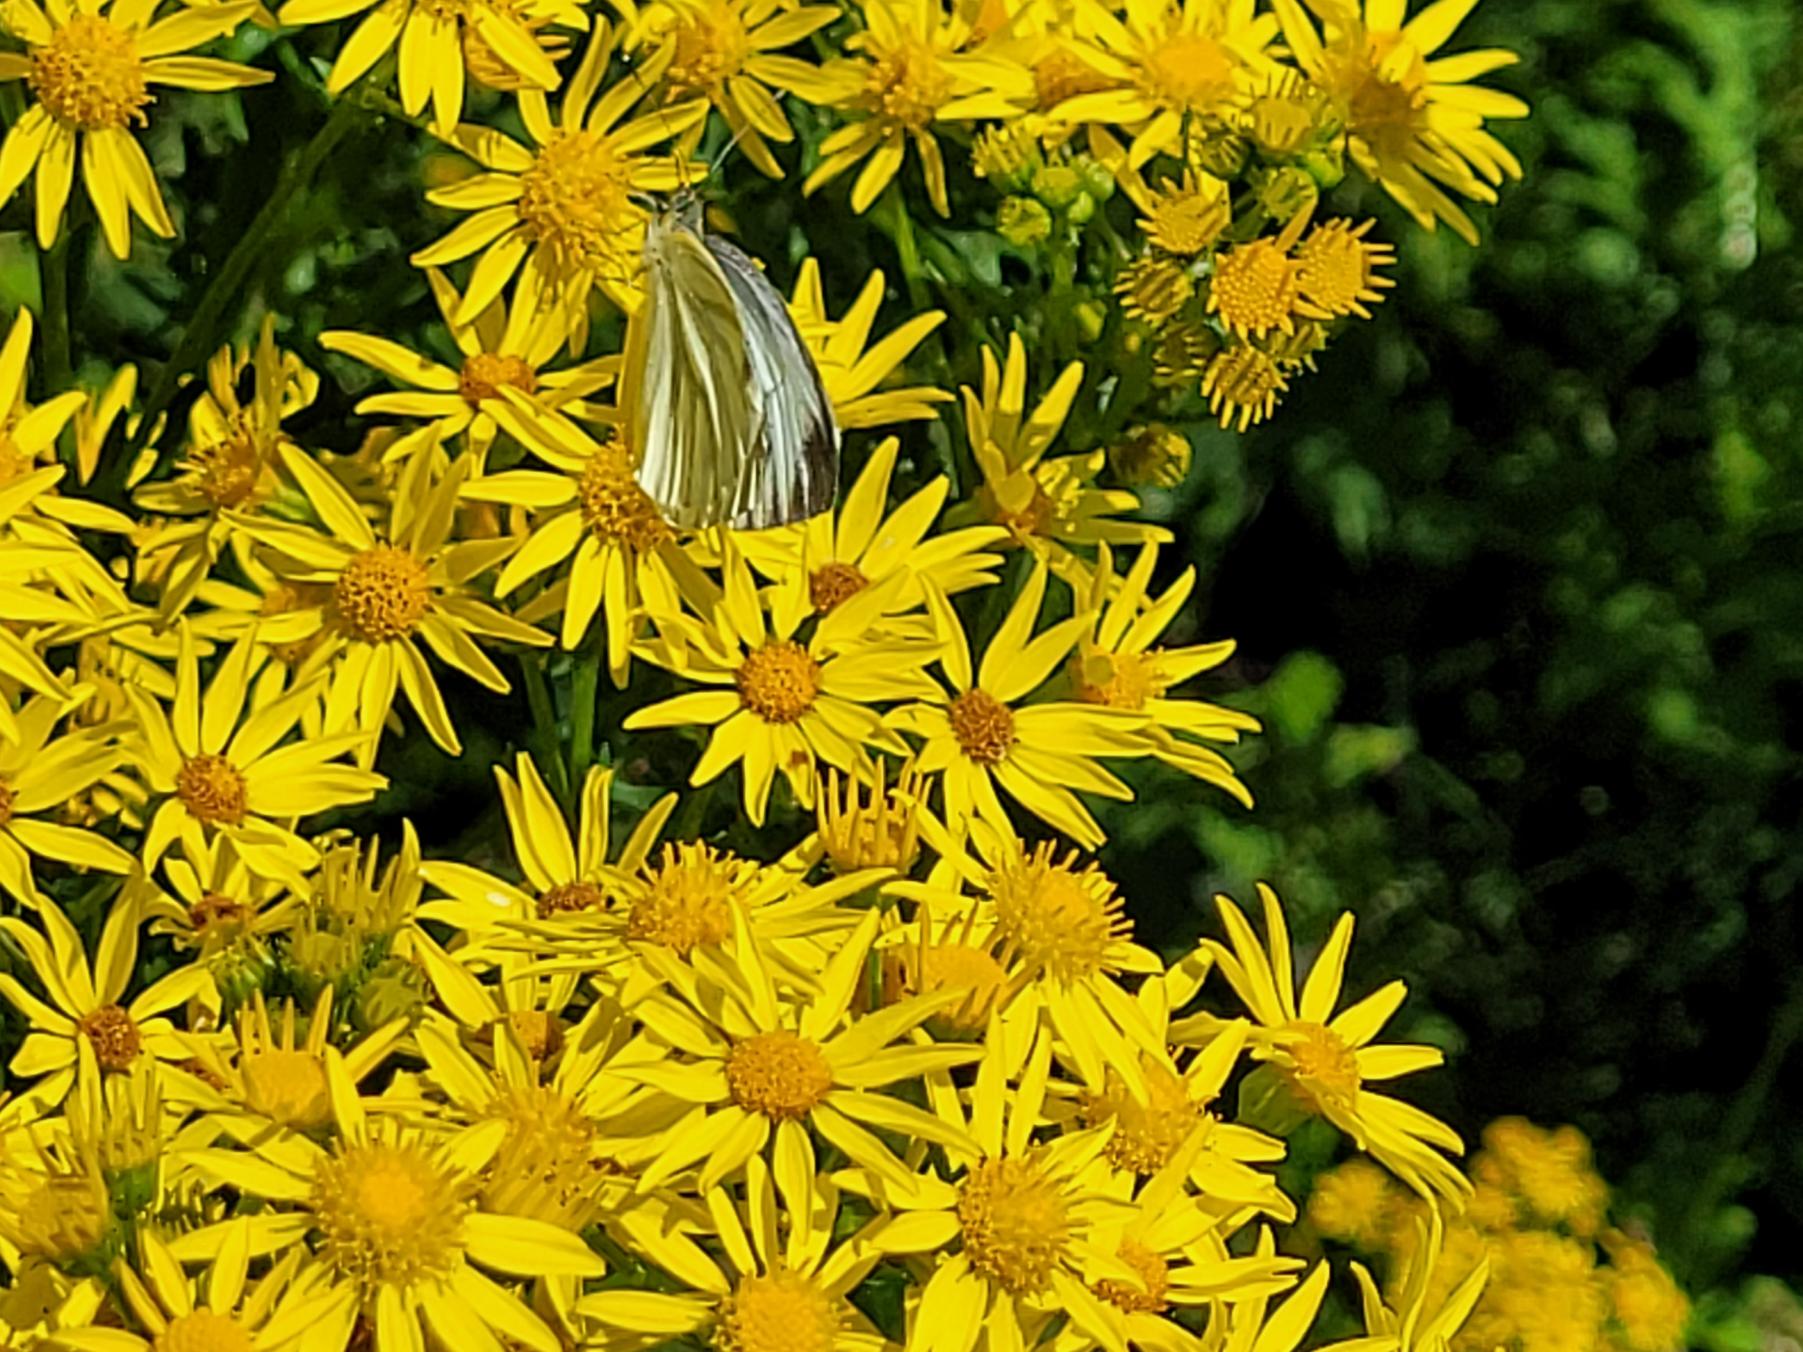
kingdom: Animalia
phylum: Arthropoda
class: Insecta
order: Lepidoptera
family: Pieridae
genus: Pieris
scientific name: Pieris napi
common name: Grønåret kålsommerfugl
